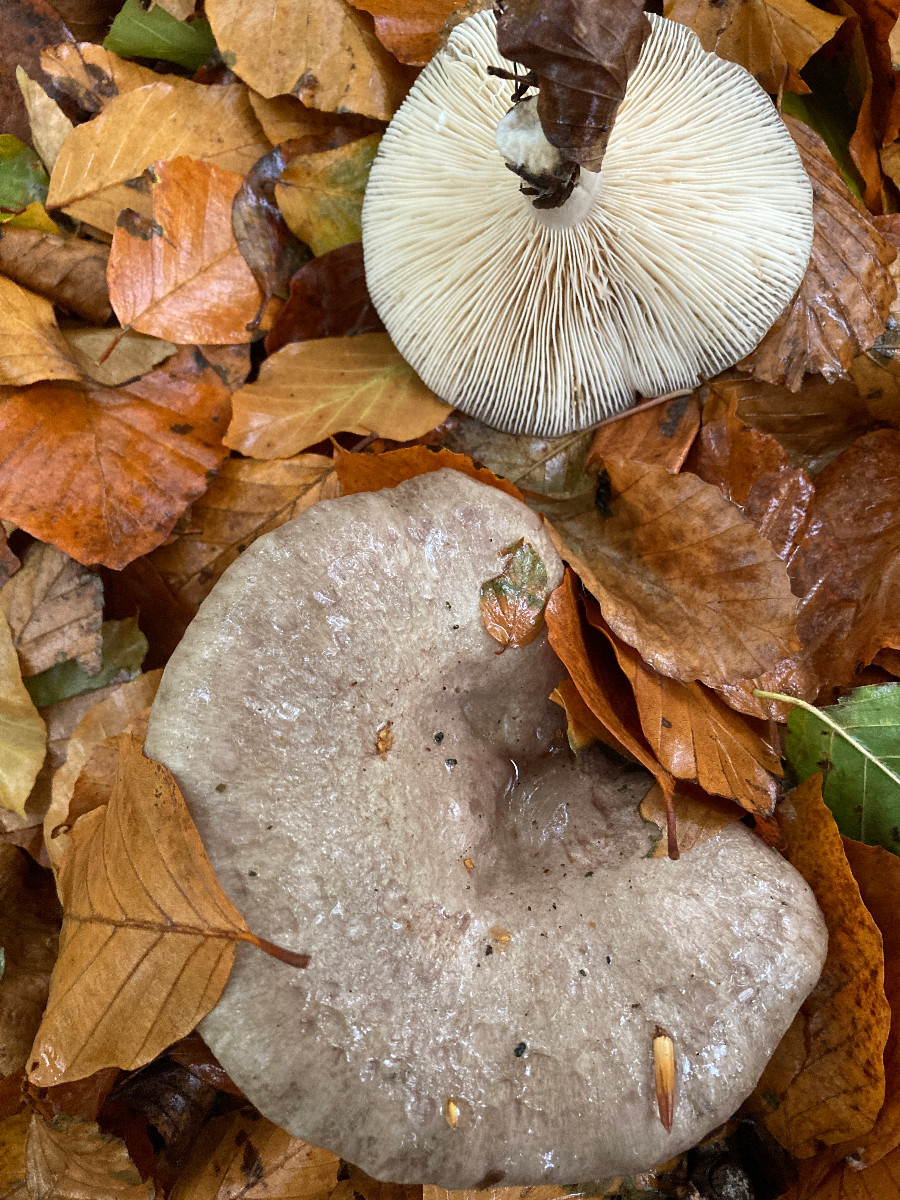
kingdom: Fungi
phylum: Basidiomycota
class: Agaricomycetes
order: Russulales
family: Russulaceae
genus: Lactarius
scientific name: Lactarius blennius
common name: dråbeplettet mælkehat
